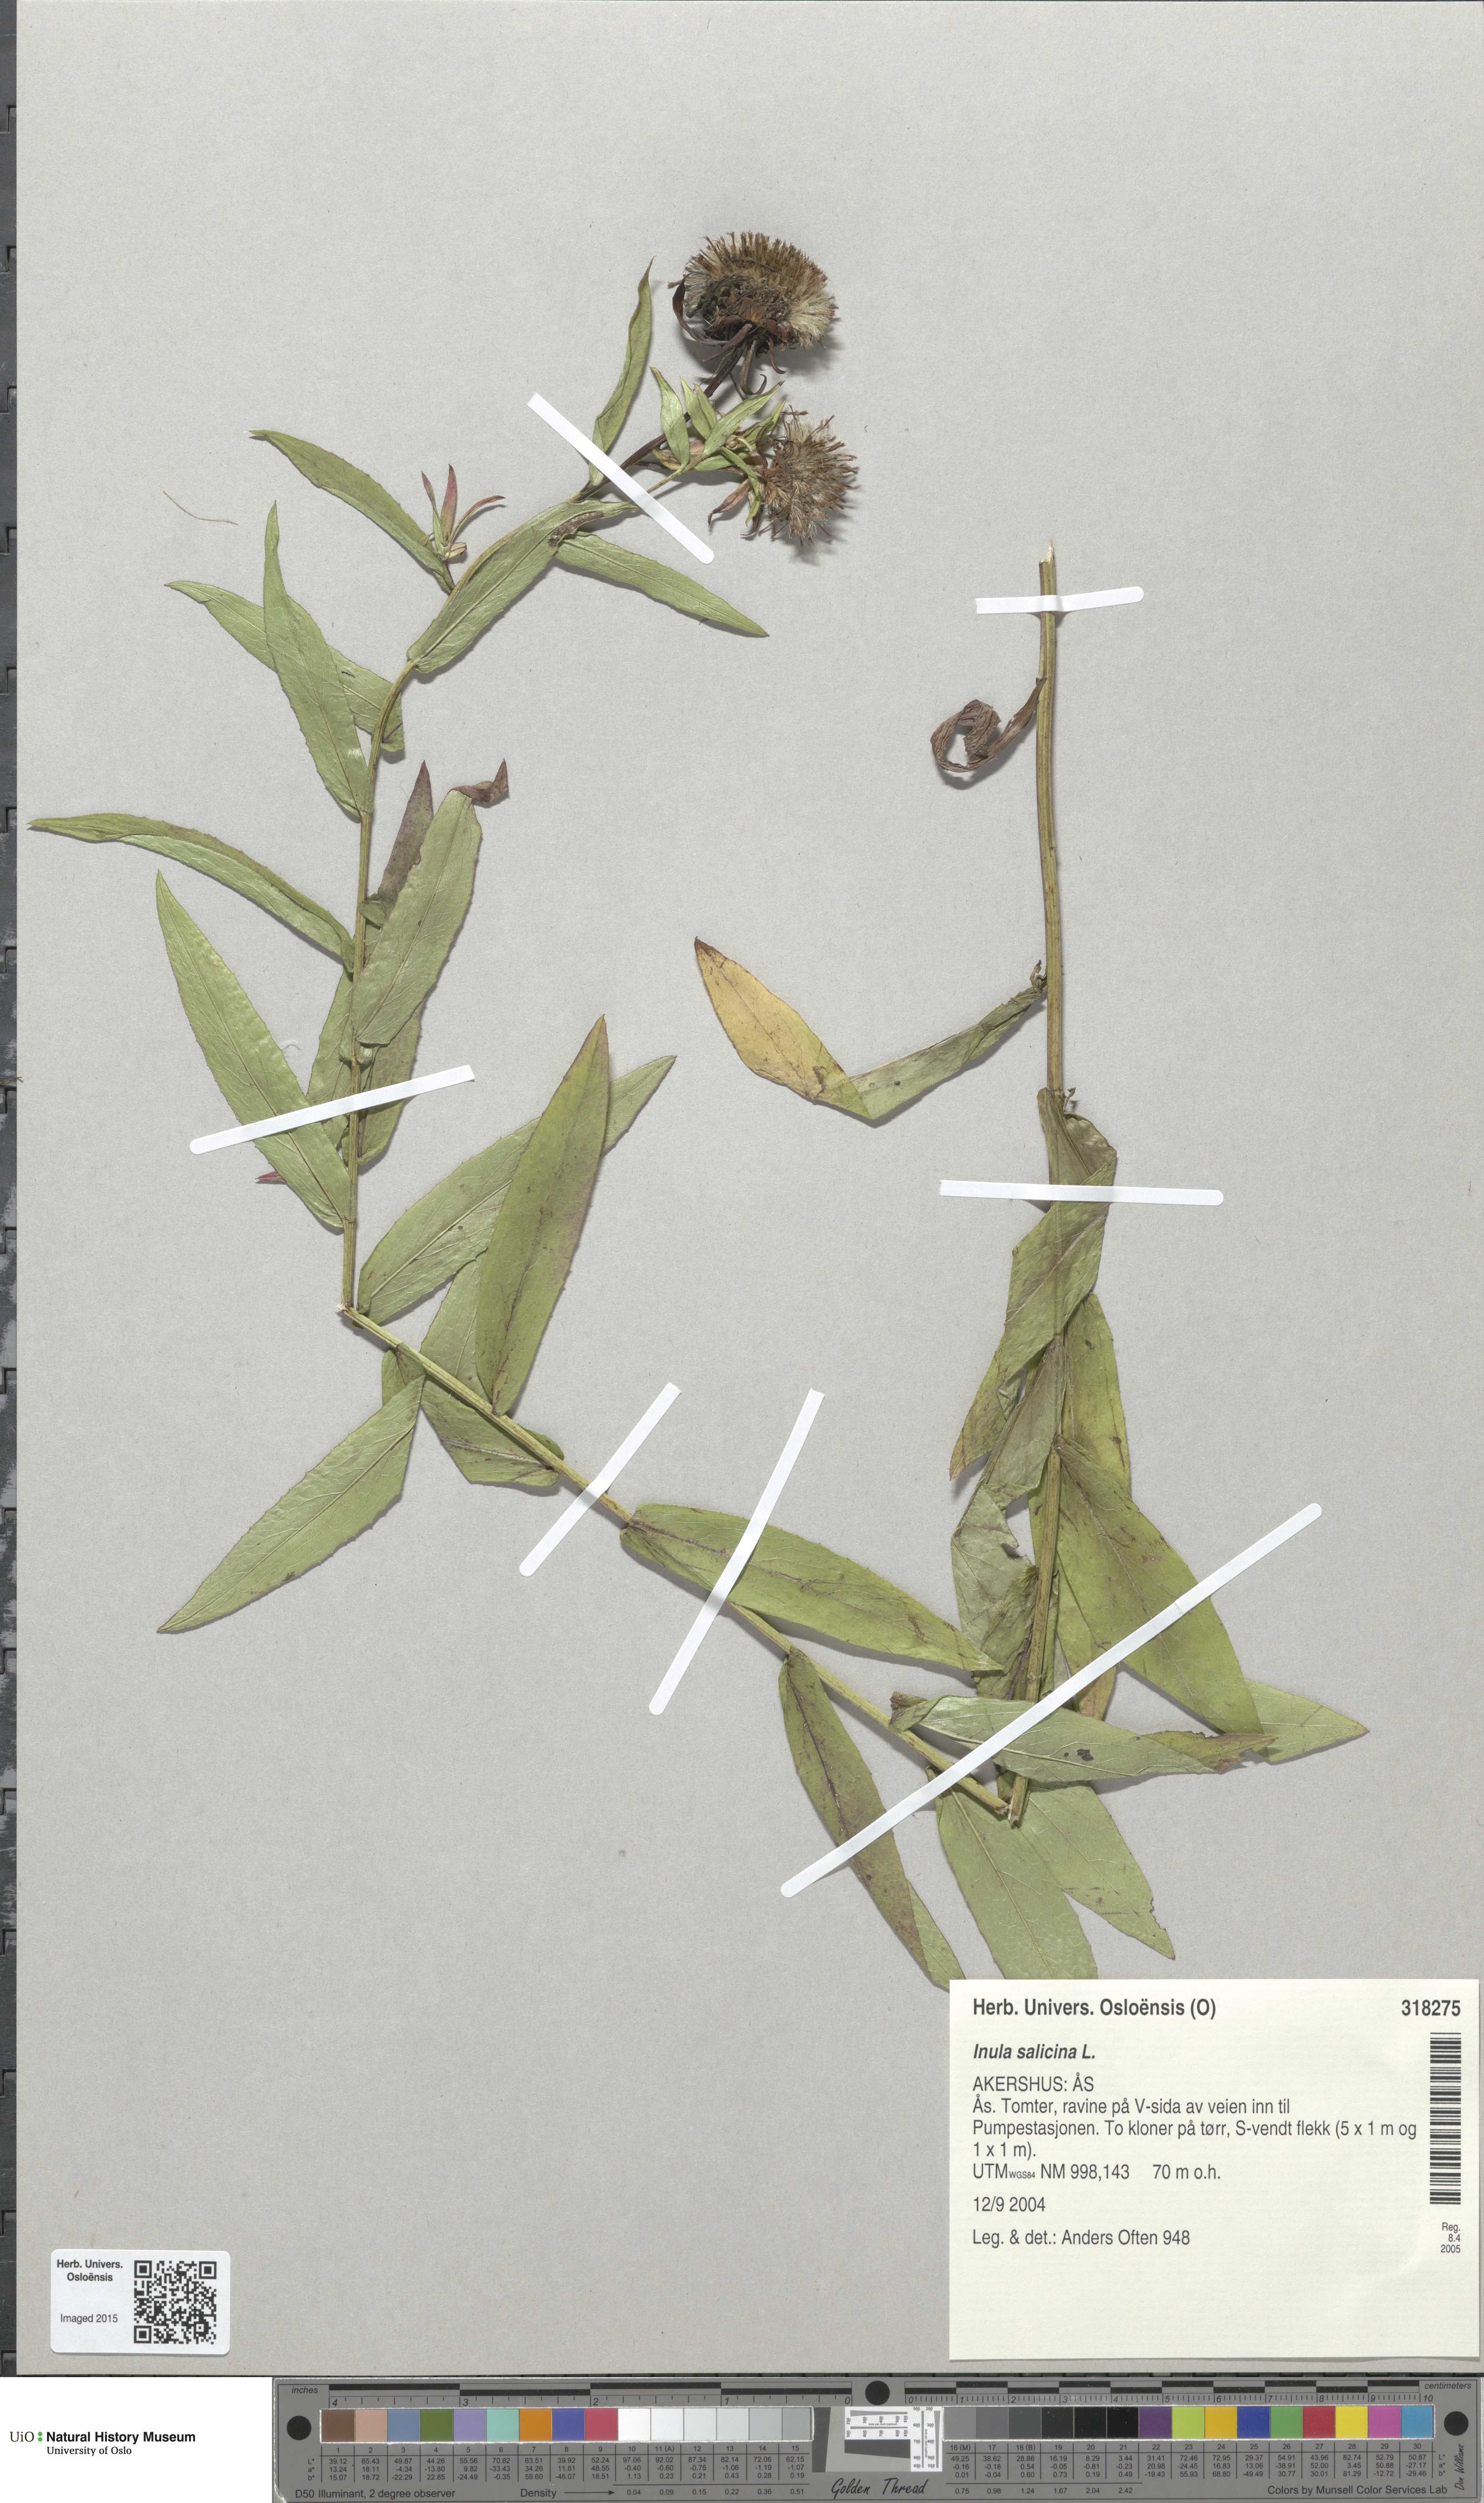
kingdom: Plantae
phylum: Tracheophyta
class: Magnoliopsida
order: Asterales
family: Asteraceae
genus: Pentanema
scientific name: Pentanema salicinum
